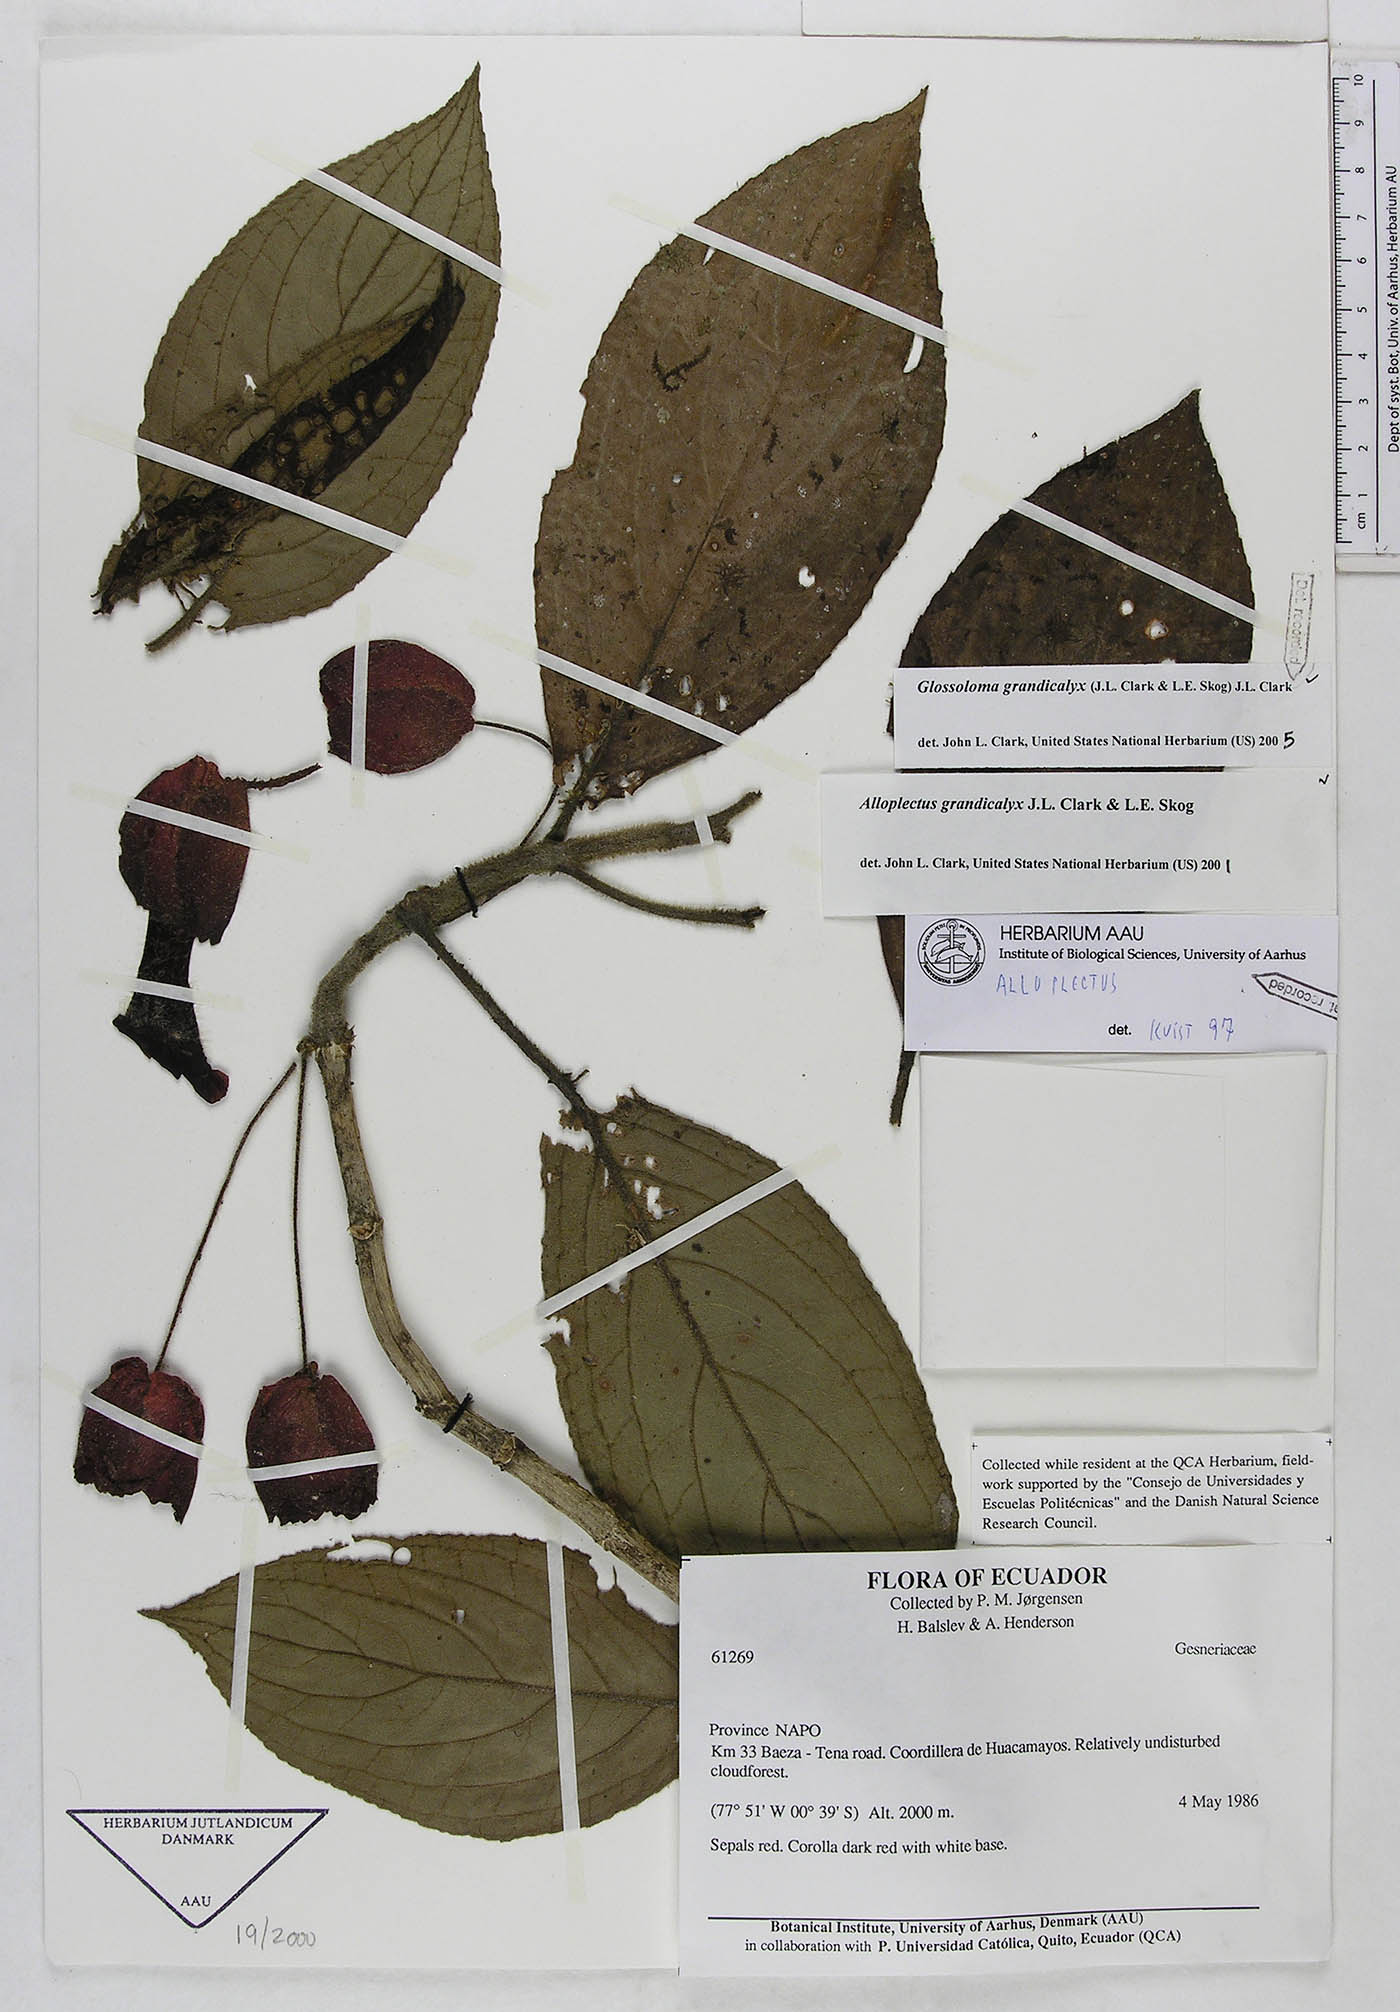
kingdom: Plantae
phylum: Tracheophyta
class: Magnoliopsida
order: Lamiales
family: Gesneriaceae
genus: Glossoloma
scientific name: Glossoloma grandicalyx
